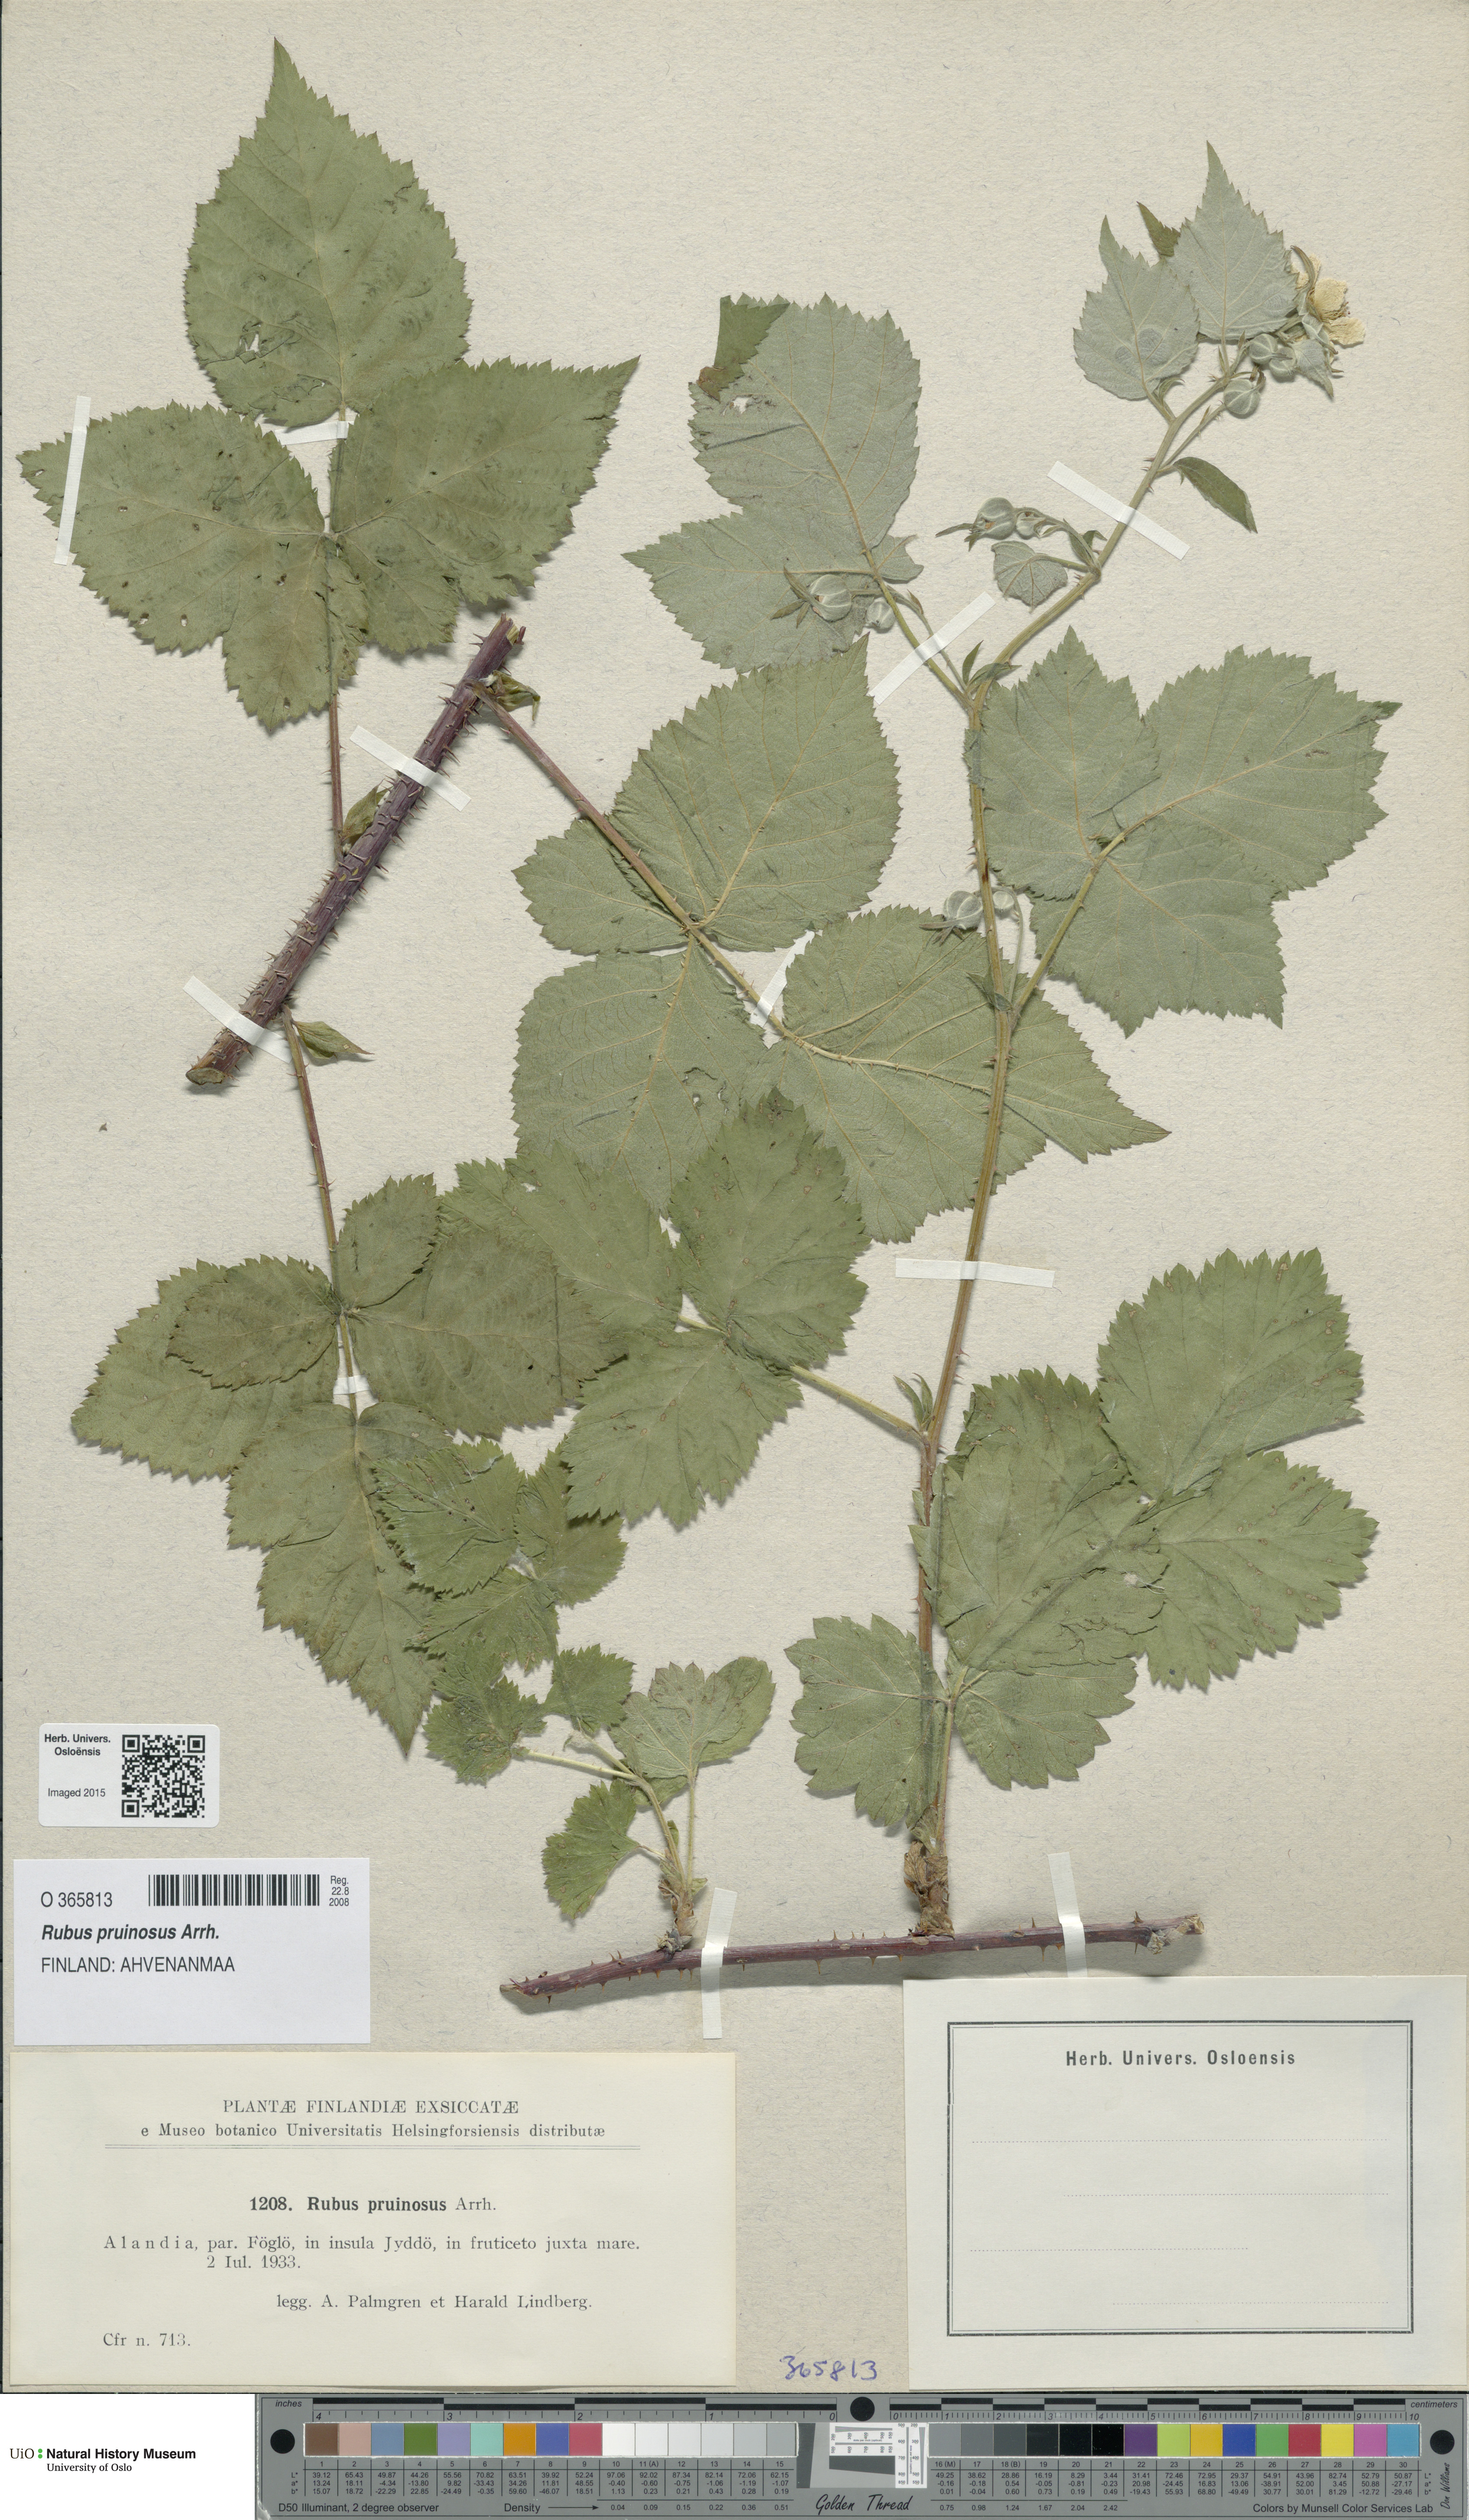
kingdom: Plantae
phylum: Tracheophyta
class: Magnoliopsida
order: Rosales
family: Rosaceae
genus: Rubus
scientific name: Rubus pruinosus
